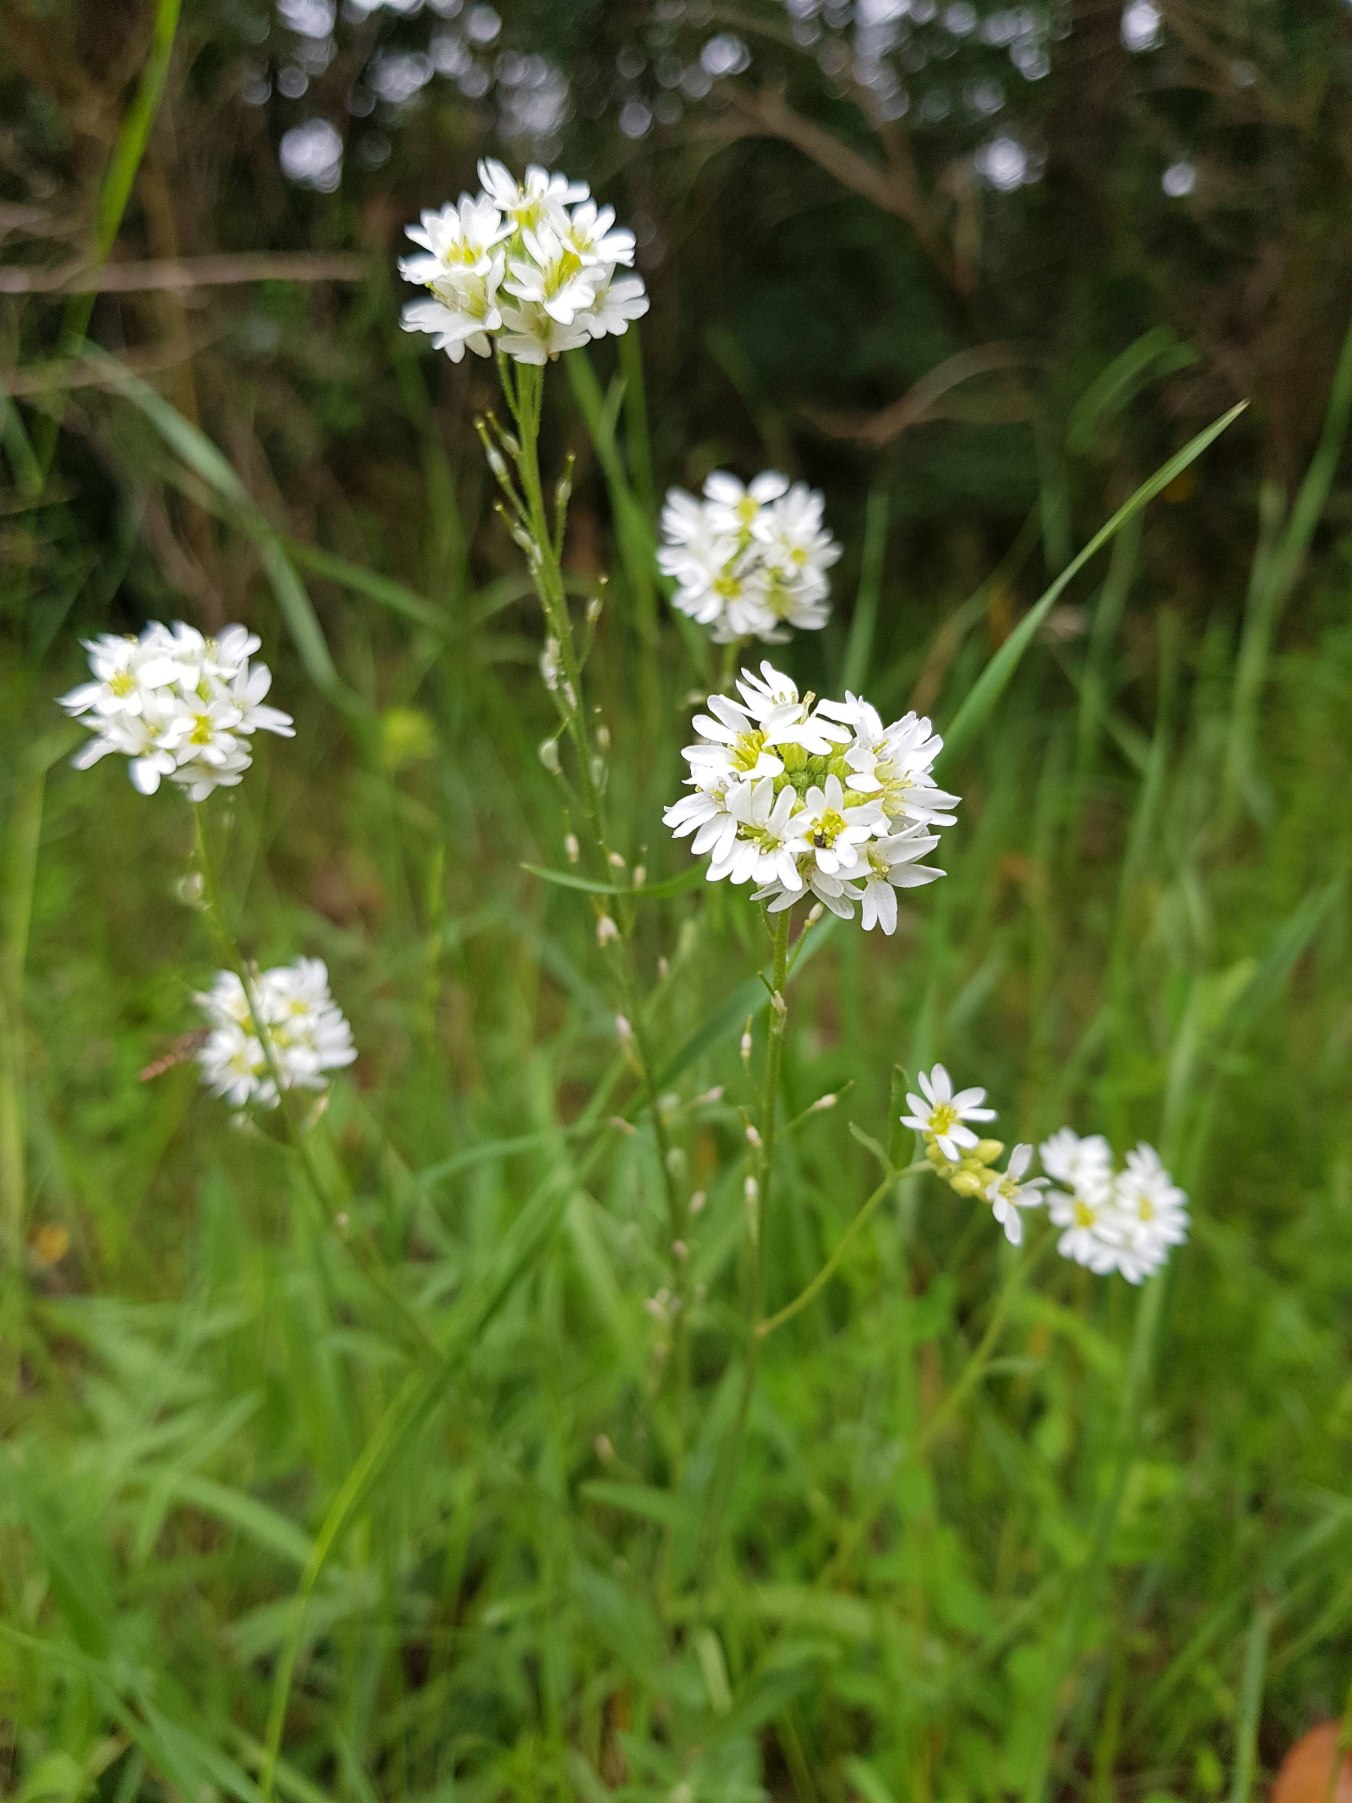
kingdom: Plantae
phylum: Tracheophyta
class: Magnoliopsida
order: Brassicales
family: Brassicaceae
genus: Berteroa
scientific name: Berteroa incana
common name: Kløvplade
